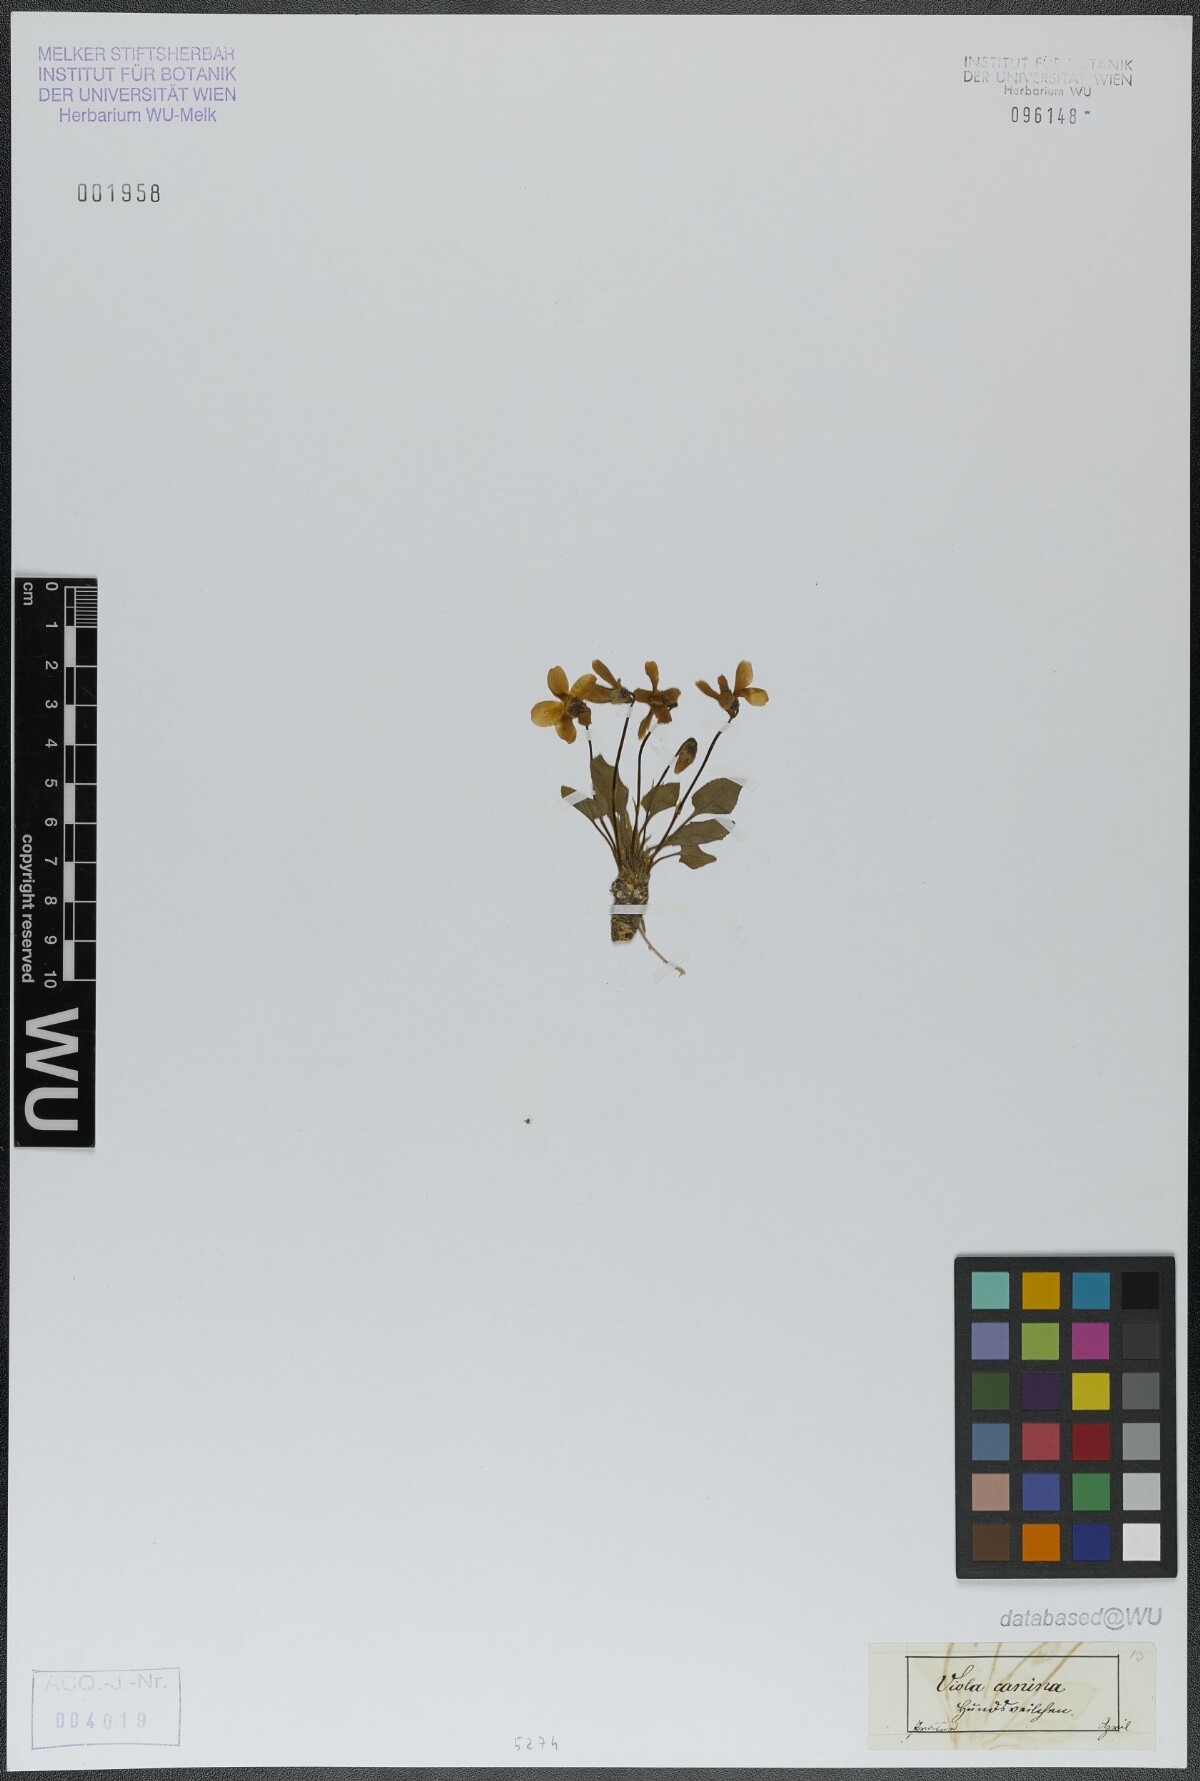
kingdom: Plantae
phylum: Tracheophyta
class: Magnoliopsida
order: Malpighiales
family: Violaceae
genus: Viola
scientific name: Viola canina
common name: Heath dog-violet
